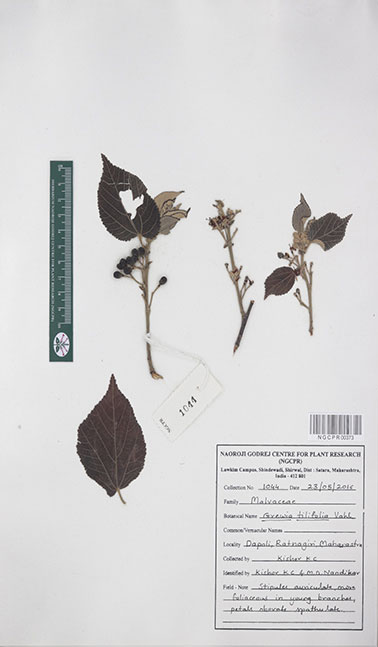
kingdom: Plantae
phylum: Tracheophyta
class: Magnoliopsida
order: Malvales
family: Malvaceae
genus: Grewia
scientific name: Grewia tiliifolia
